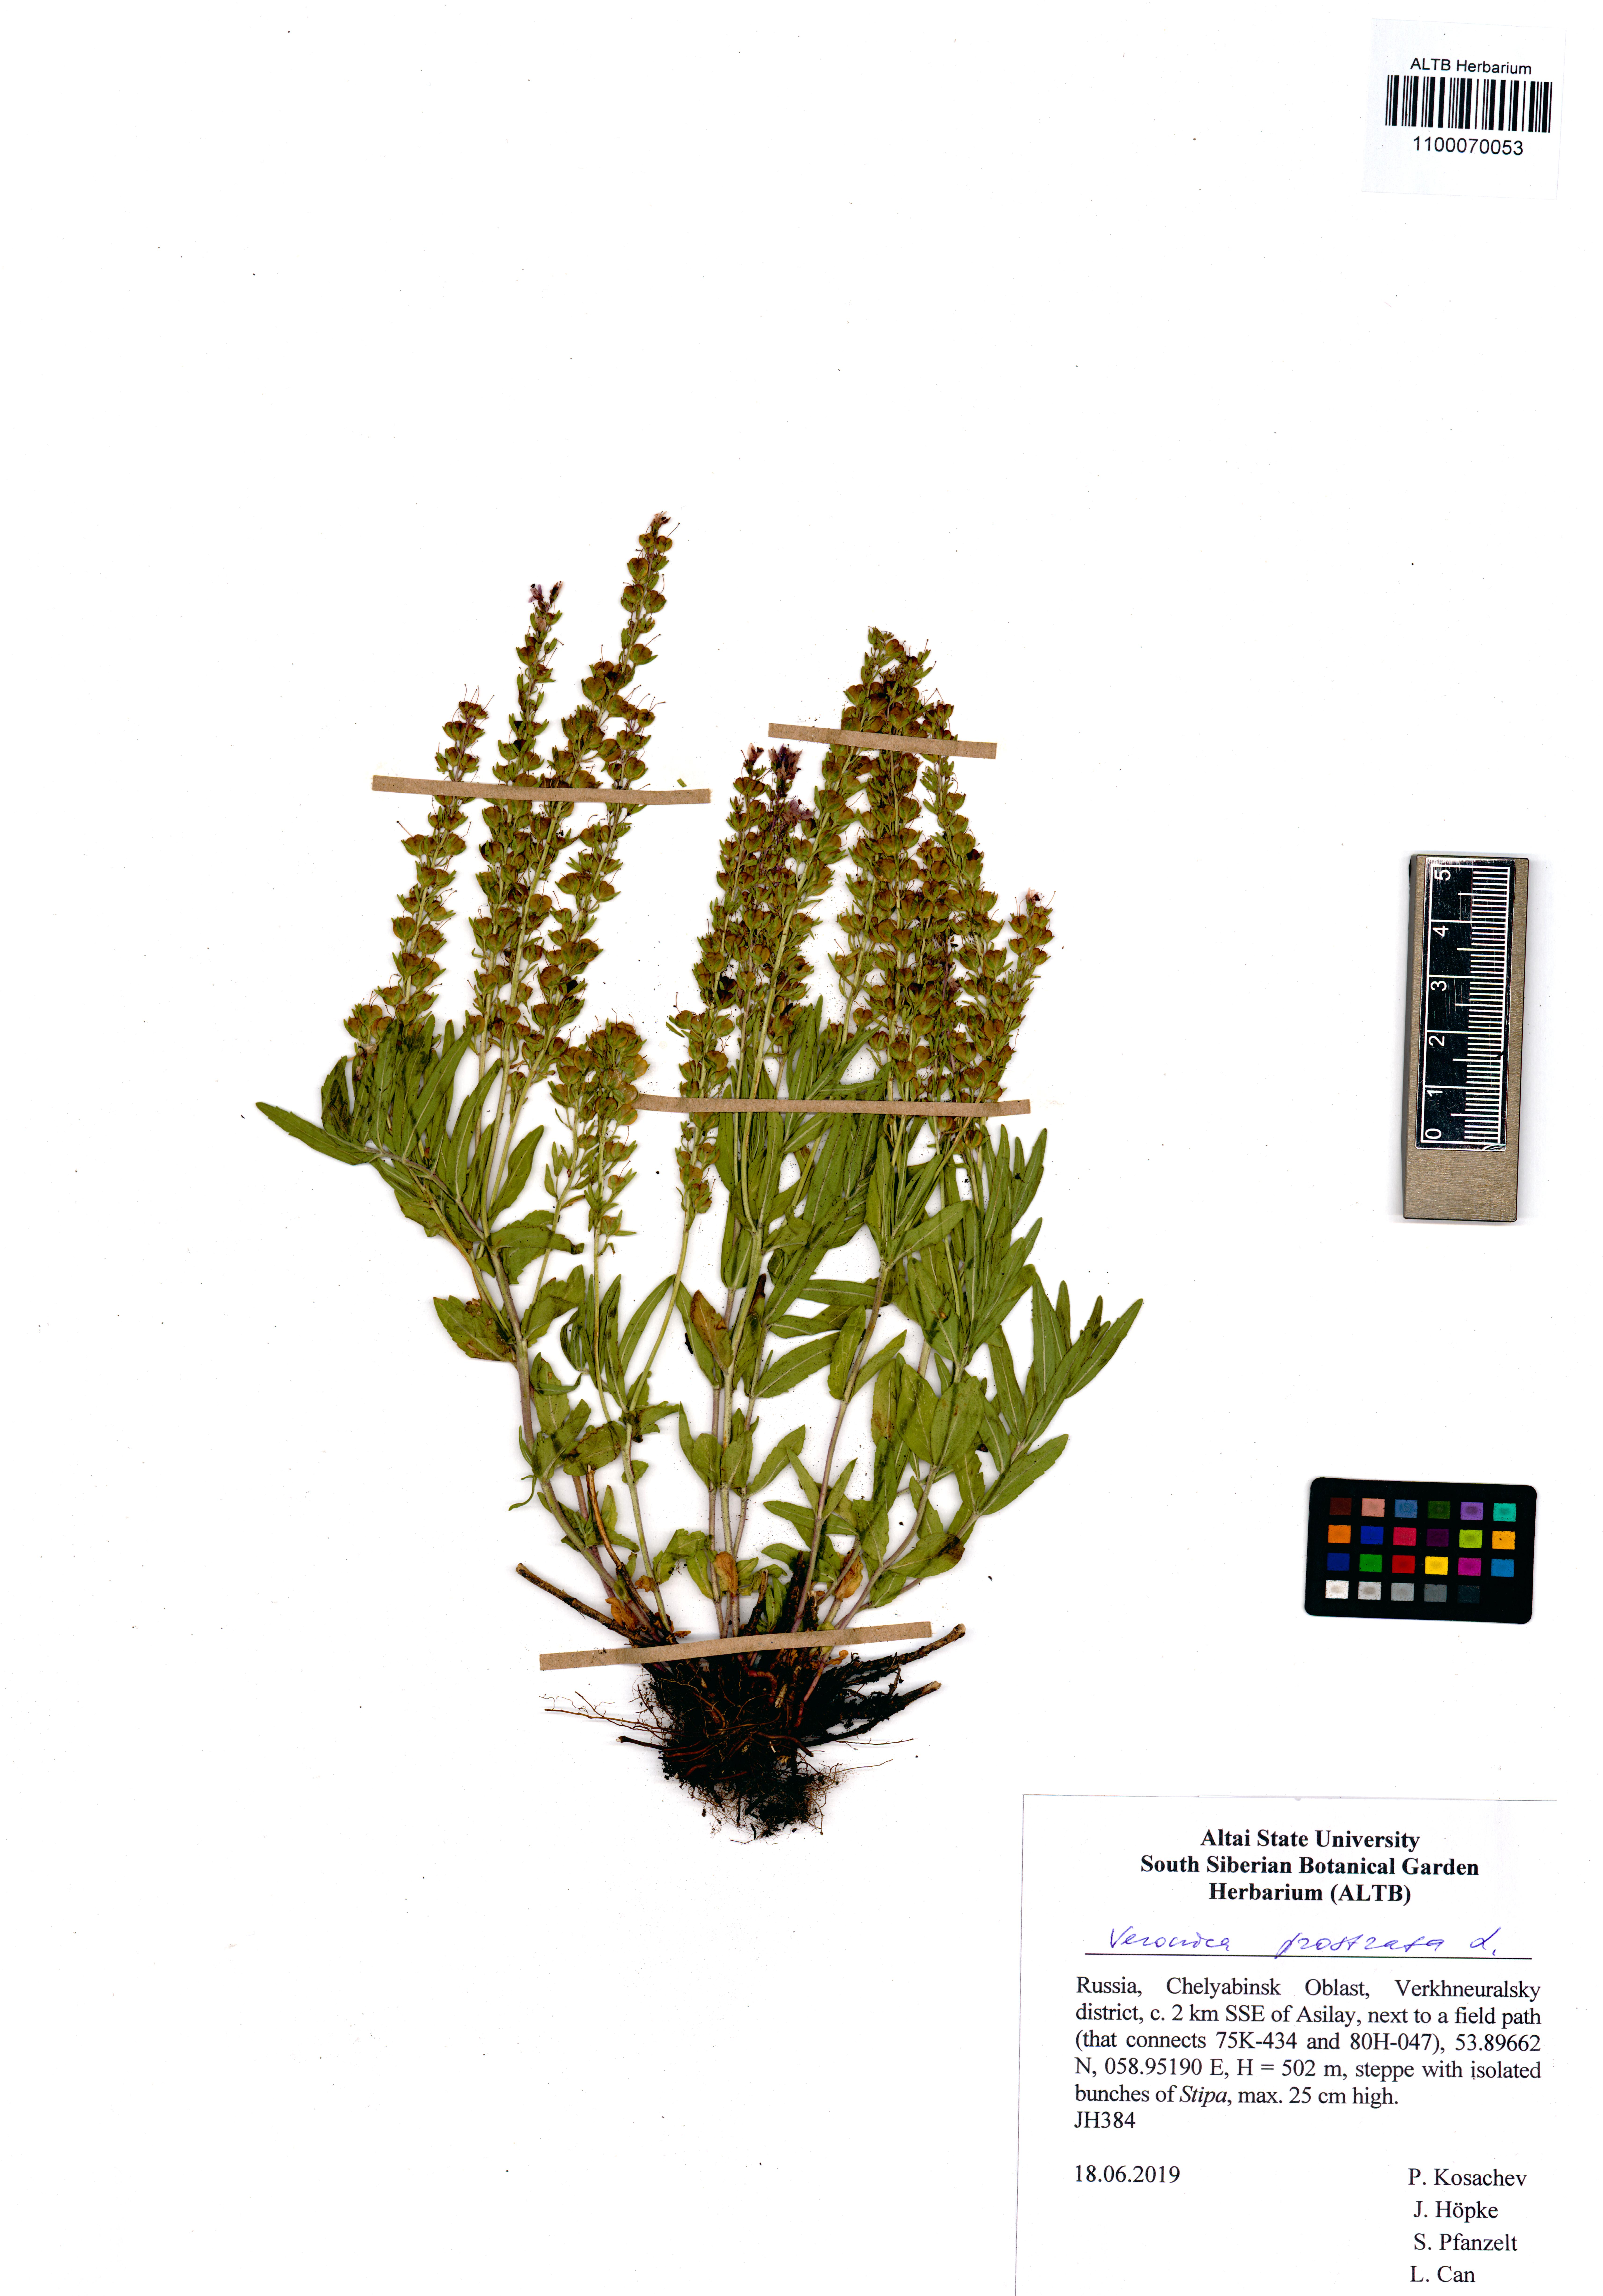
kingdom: Plantae
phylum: Tracheophyta
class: Magnoliopsida
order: Lamiales
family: Plantaginaceae
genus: Veronica
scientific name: Veronica prostrata
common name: Prostrate speedwell
